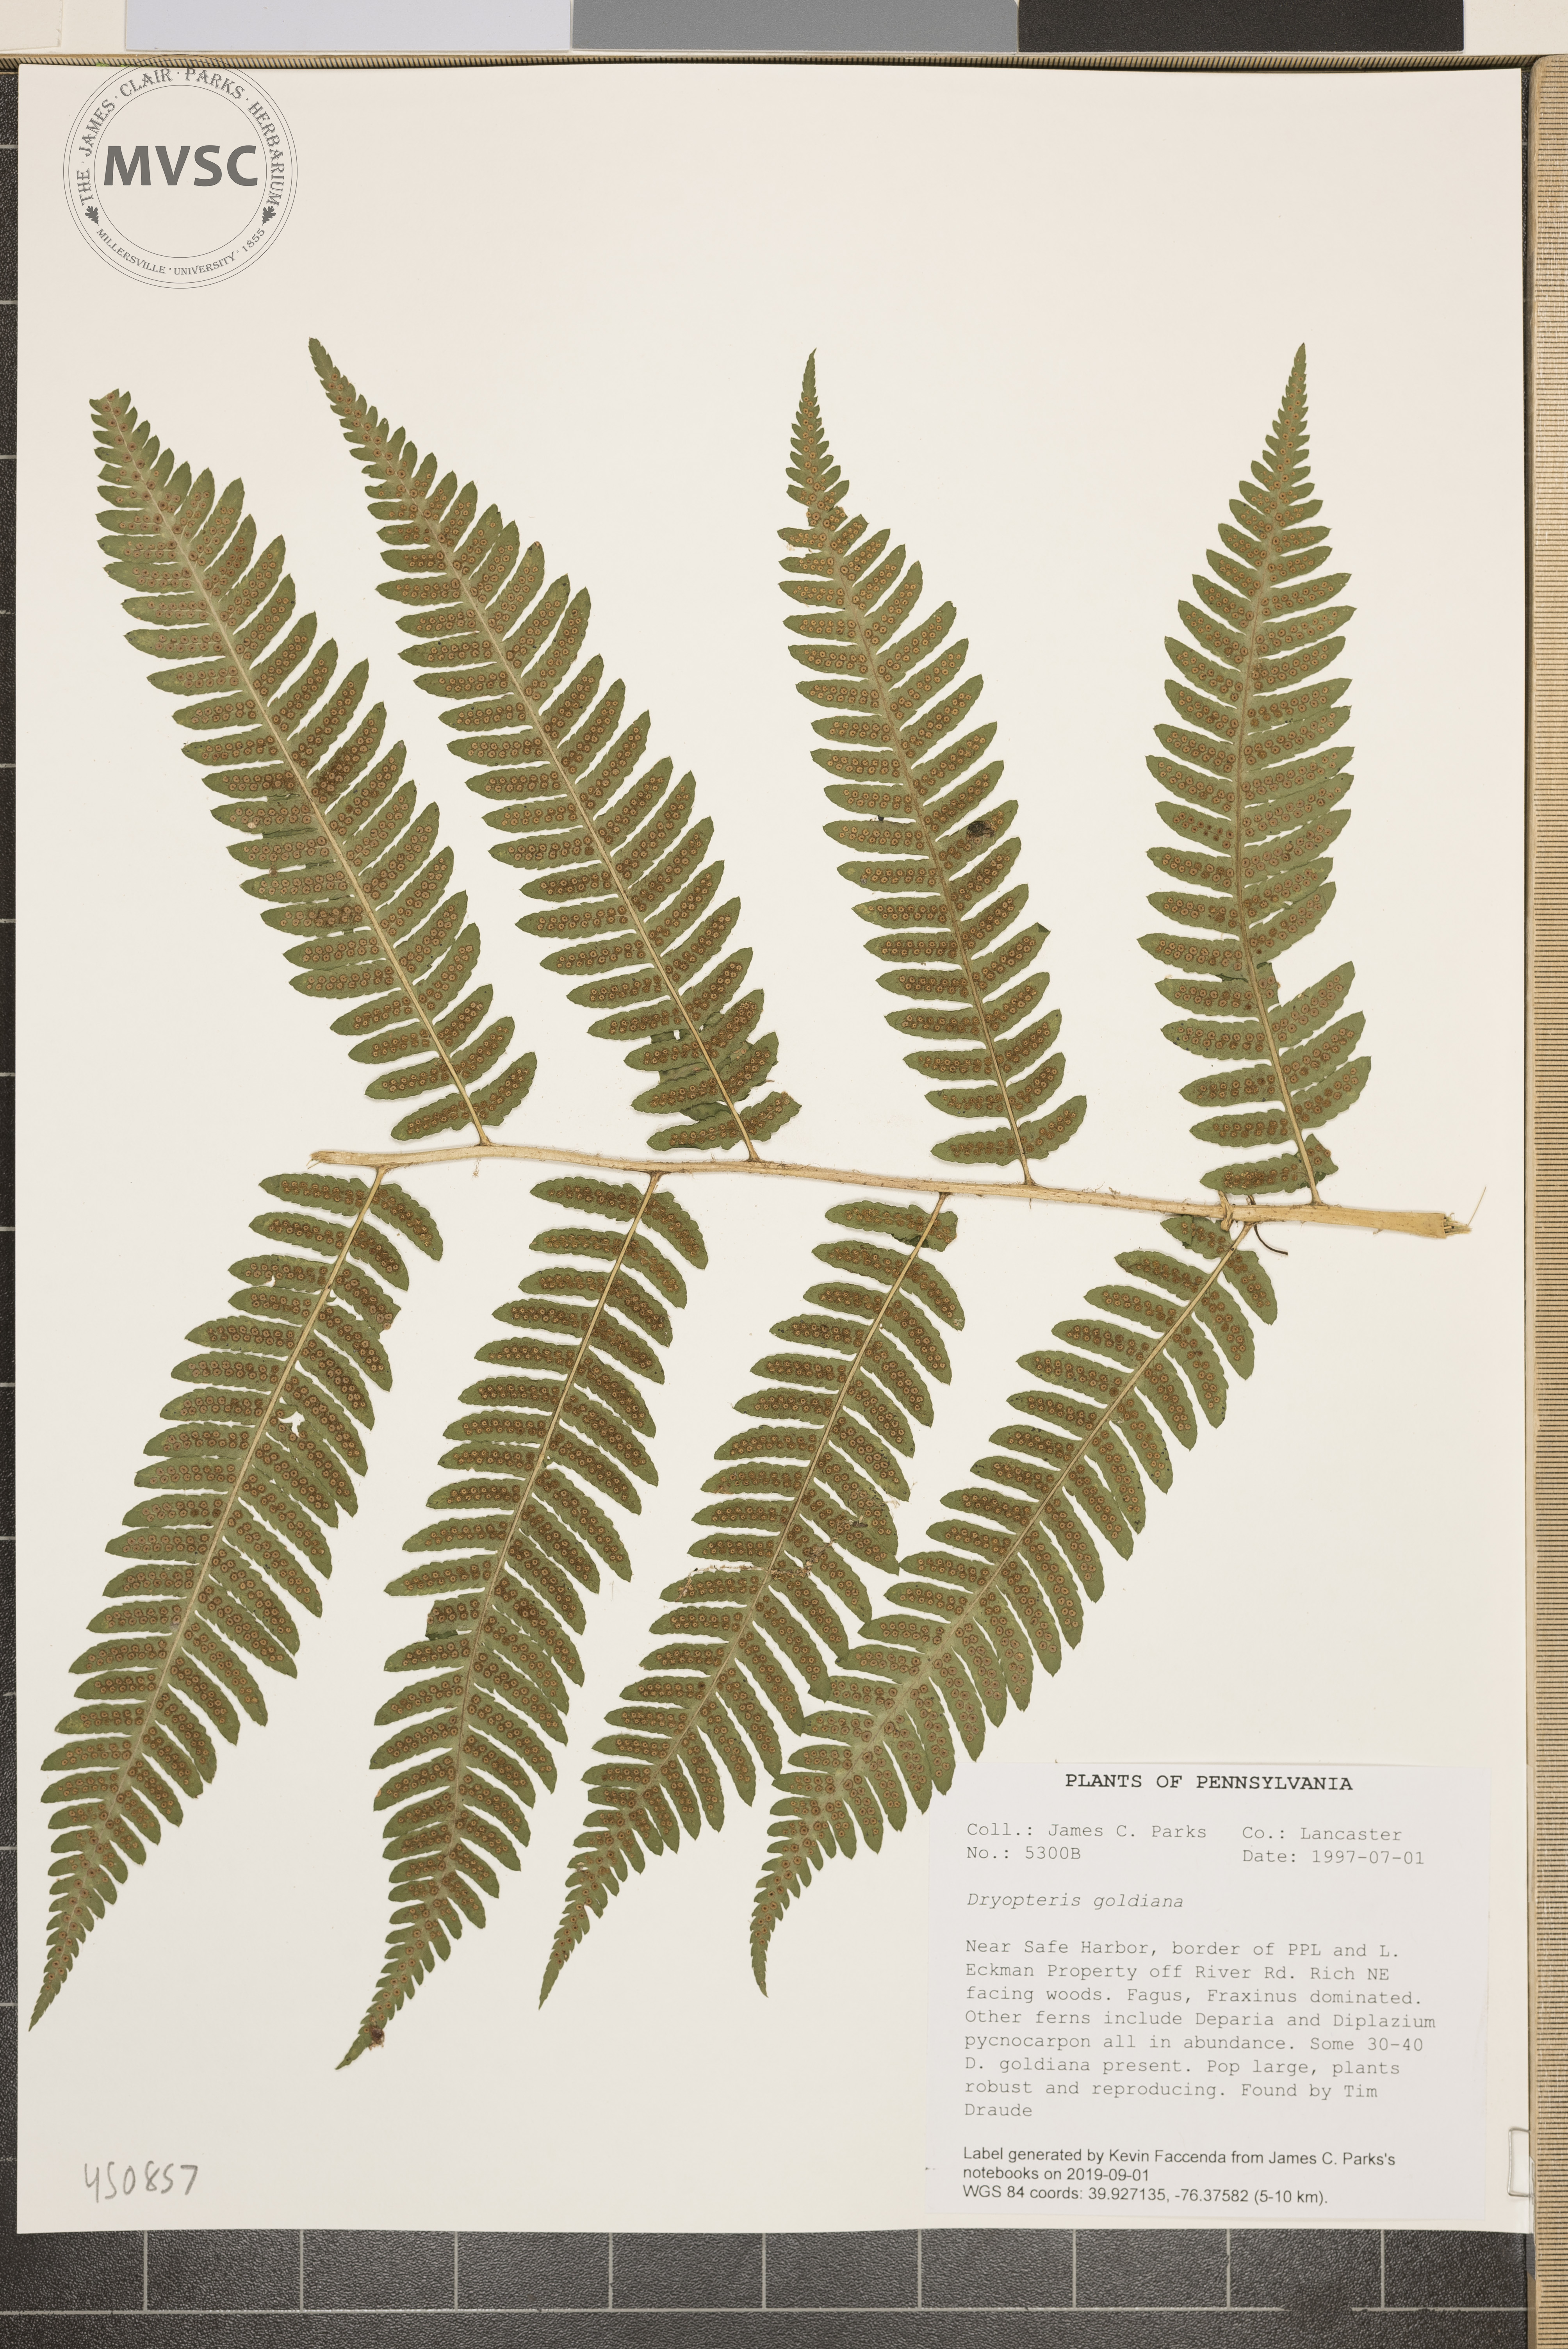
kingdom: Plantae
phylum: Tracheophyta
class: Polypodiopsida
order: Polypodiales
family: Dryopteridaceae
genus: Dryopteris
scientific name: Dryopteris goeldiana
